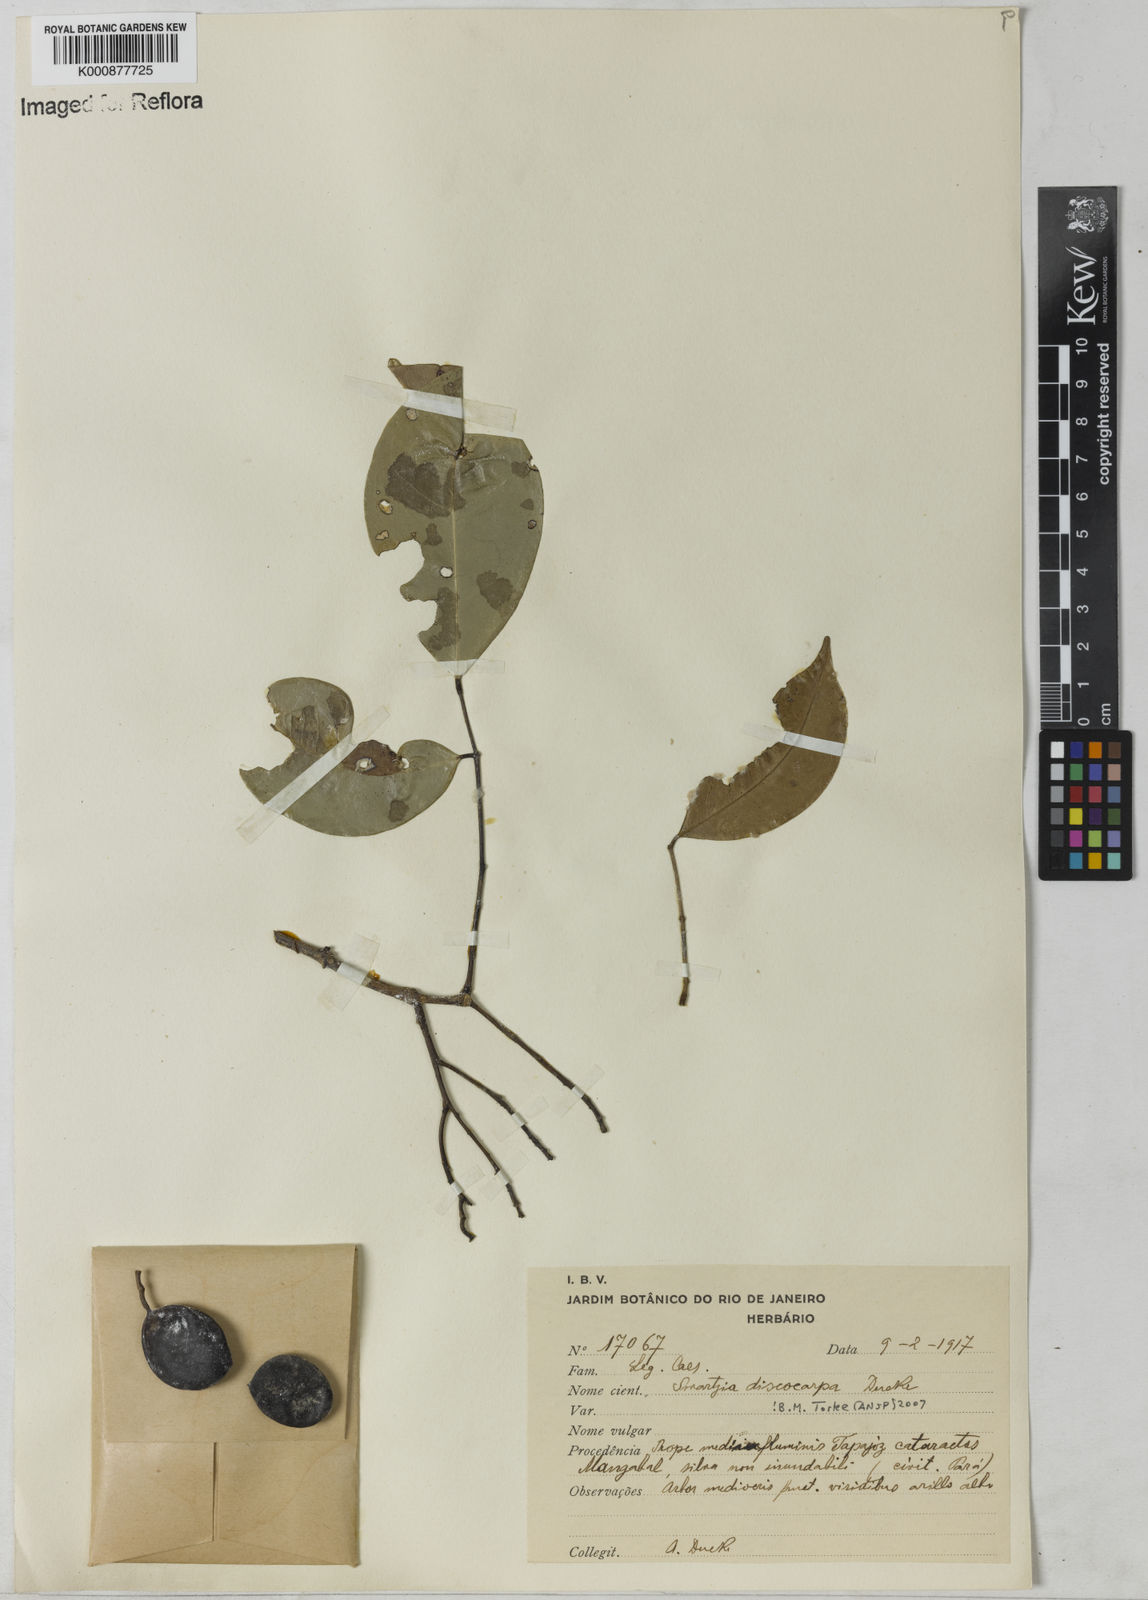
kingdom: Plantae
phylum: Tracheophyta
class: Magnoliopsida
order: Fabales
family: Fabaceae
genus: Swartzia
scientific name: Swartzia discocarpa
